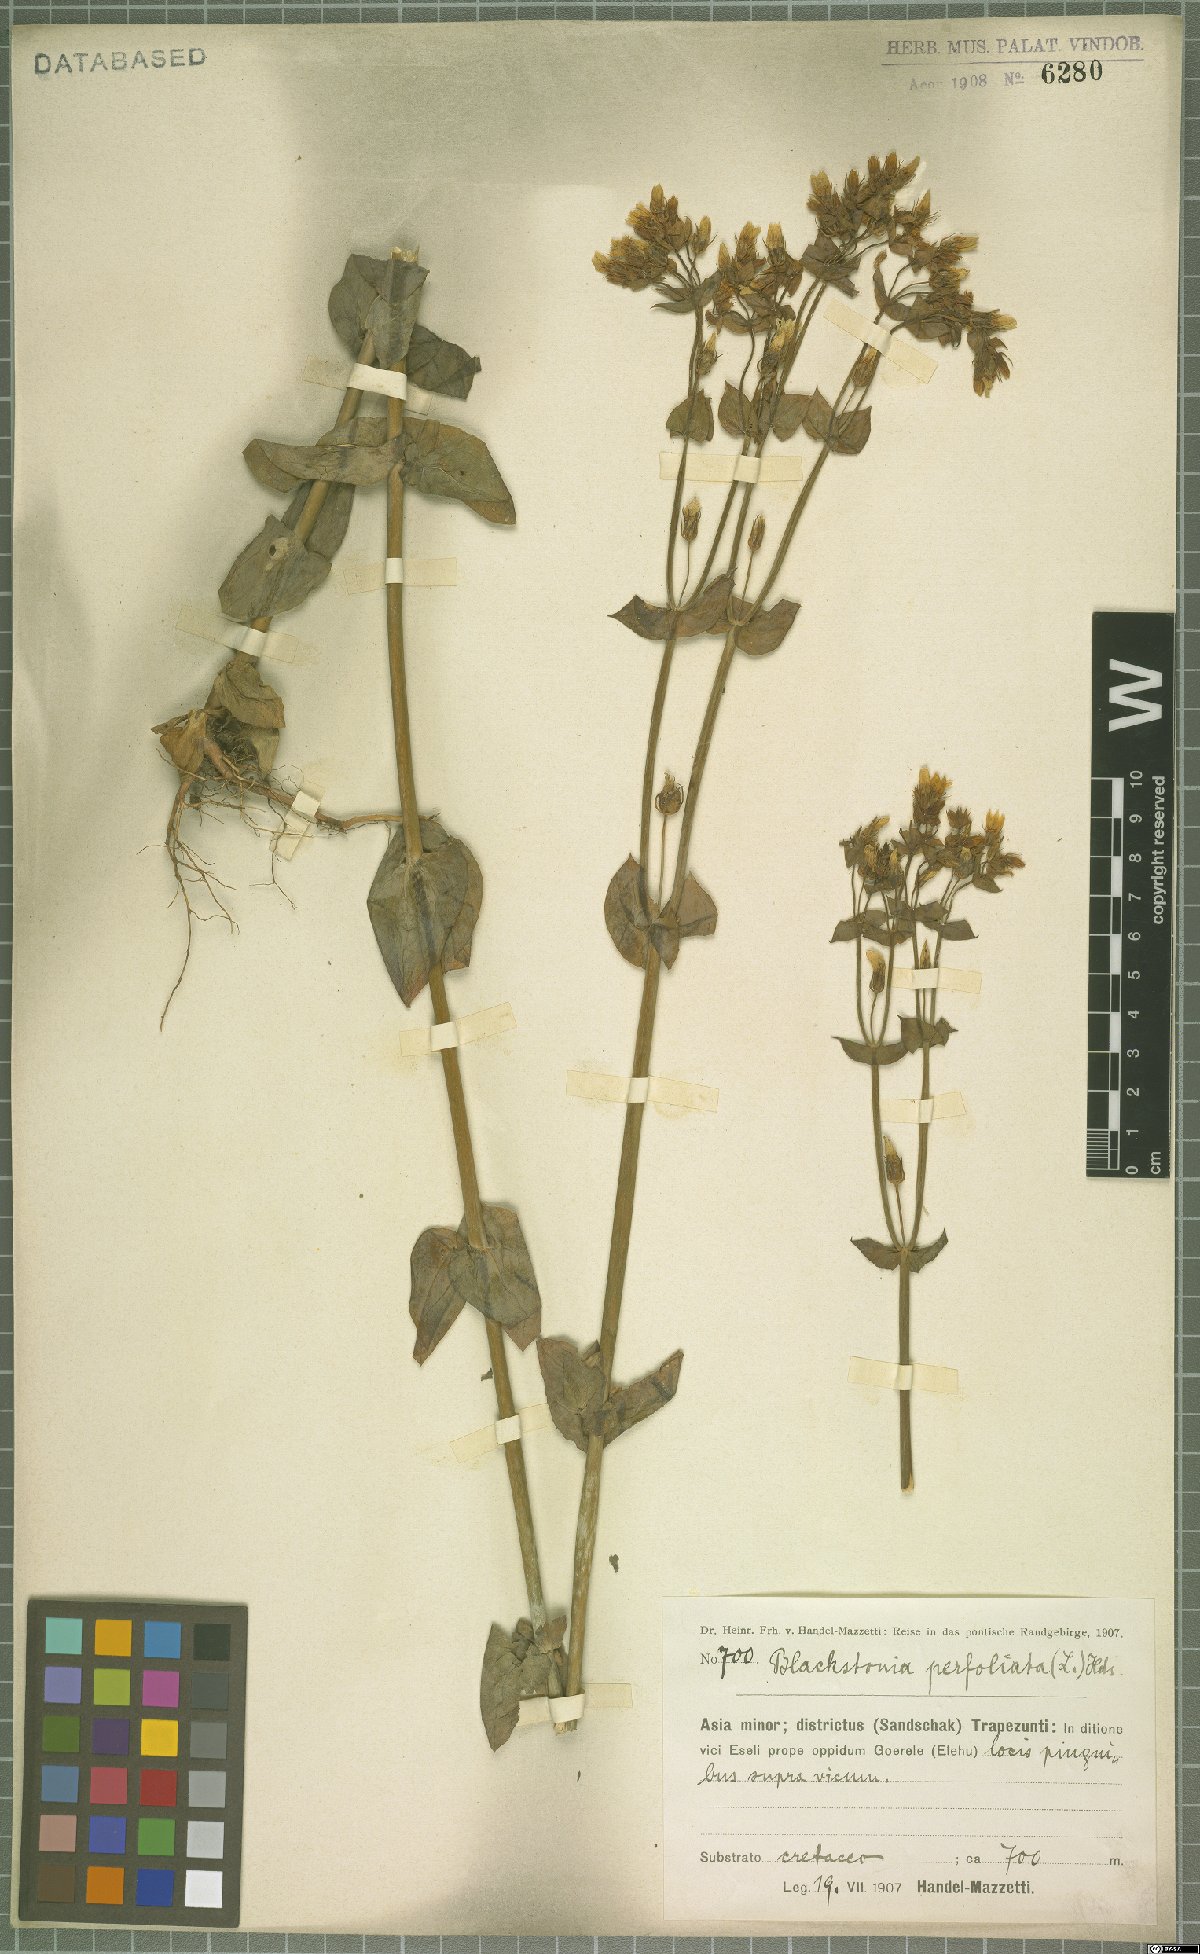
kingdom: Plantae
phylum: Tracheophyta
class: Magnoliopsida
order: Gentianales
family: Gentianaceae
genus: Blackstonia
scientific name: Blackstonia perfoliata
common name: Yellow-wort
